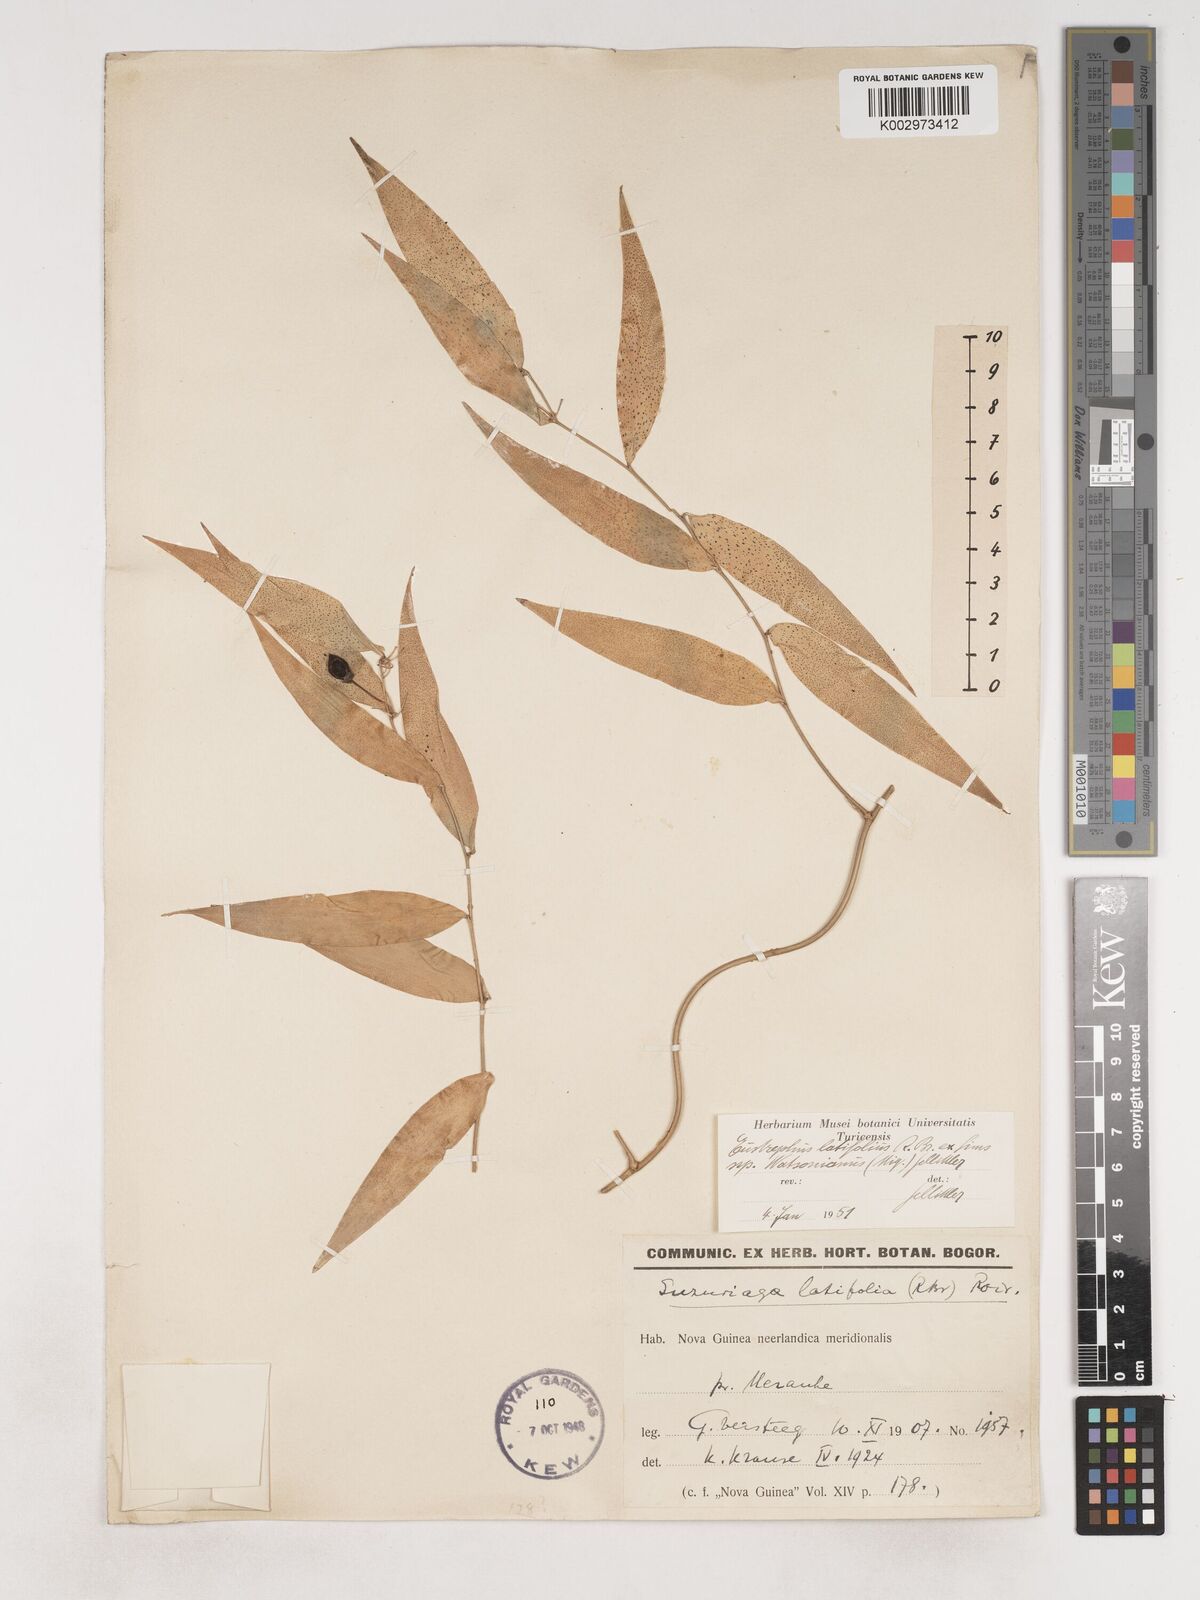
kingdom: Plantae
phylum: Tracheophyta
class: Liliopsida
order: Asparagales
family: Asparagaceae
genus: Eustrephus
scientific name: Eustrephus latifolius
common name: Orangevine
